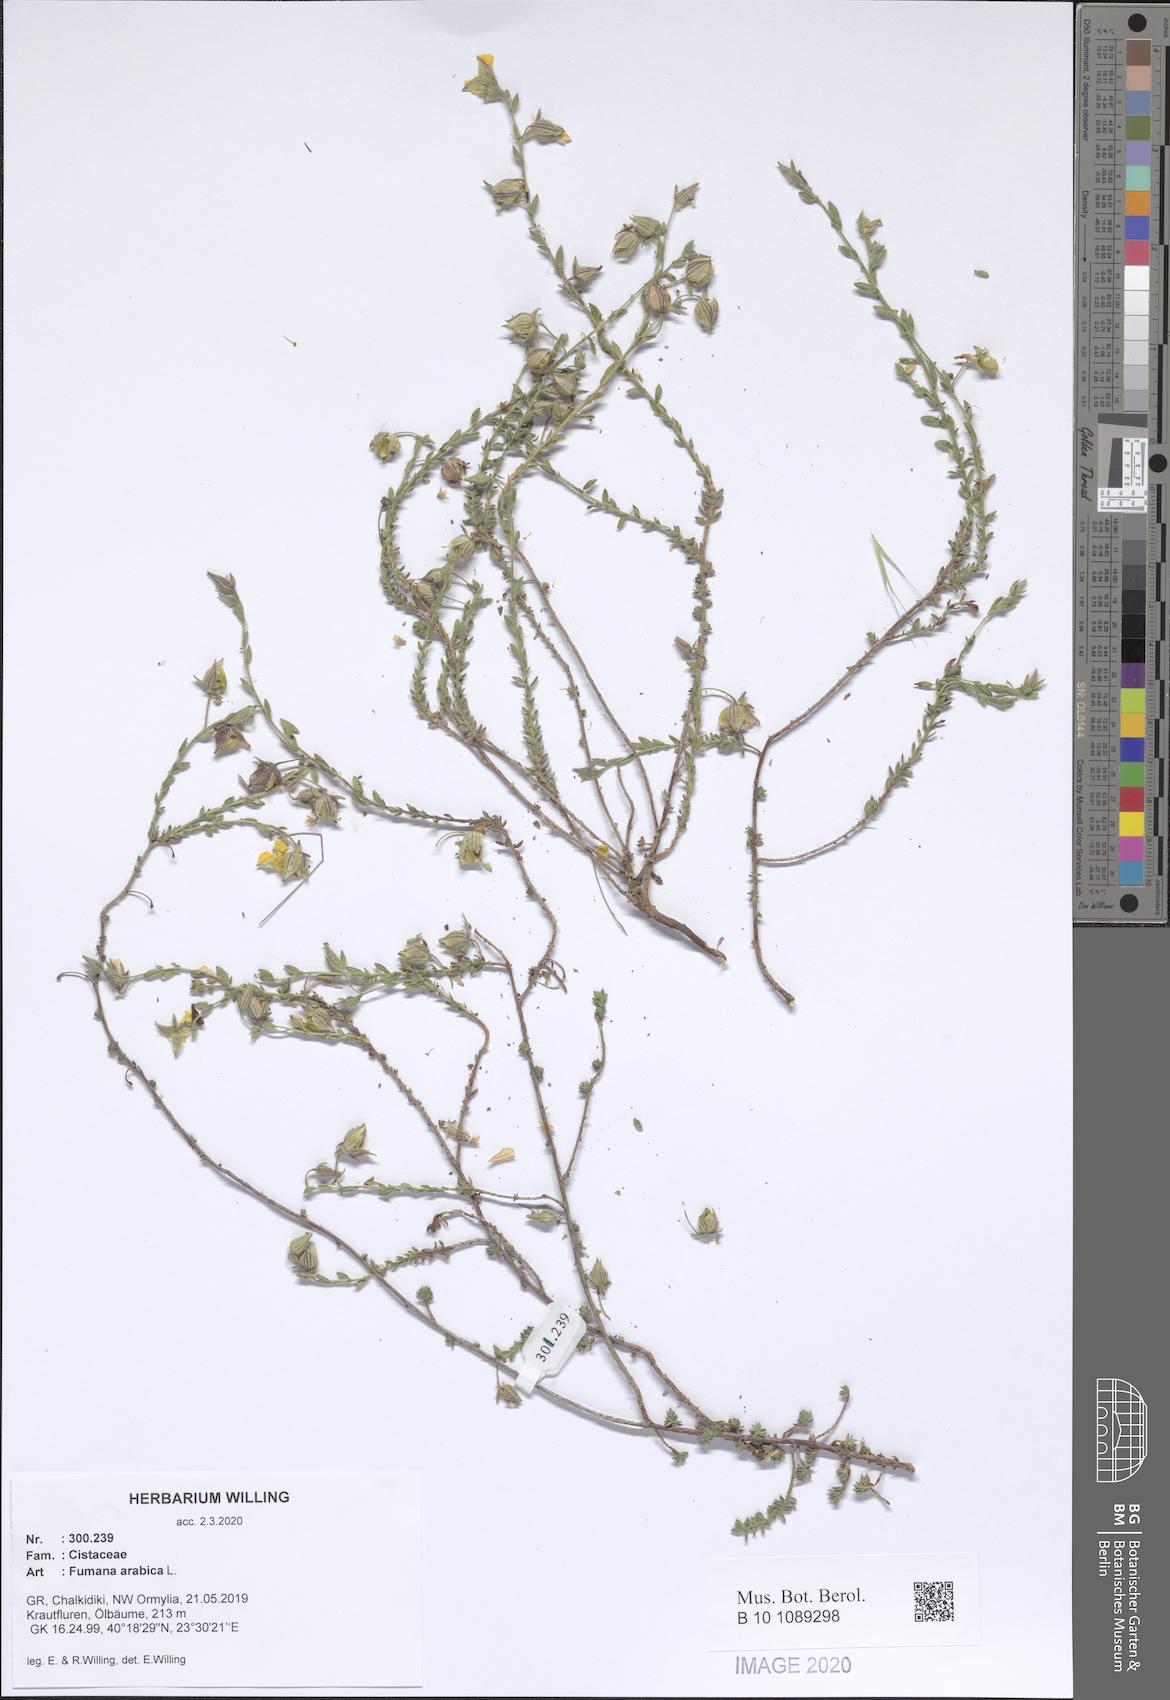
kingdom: Plantae
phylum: Tracheophyta
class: Magnoliopsida
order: Malvales
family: Cistaceae
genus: Fumana
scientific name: Fumana arabica
